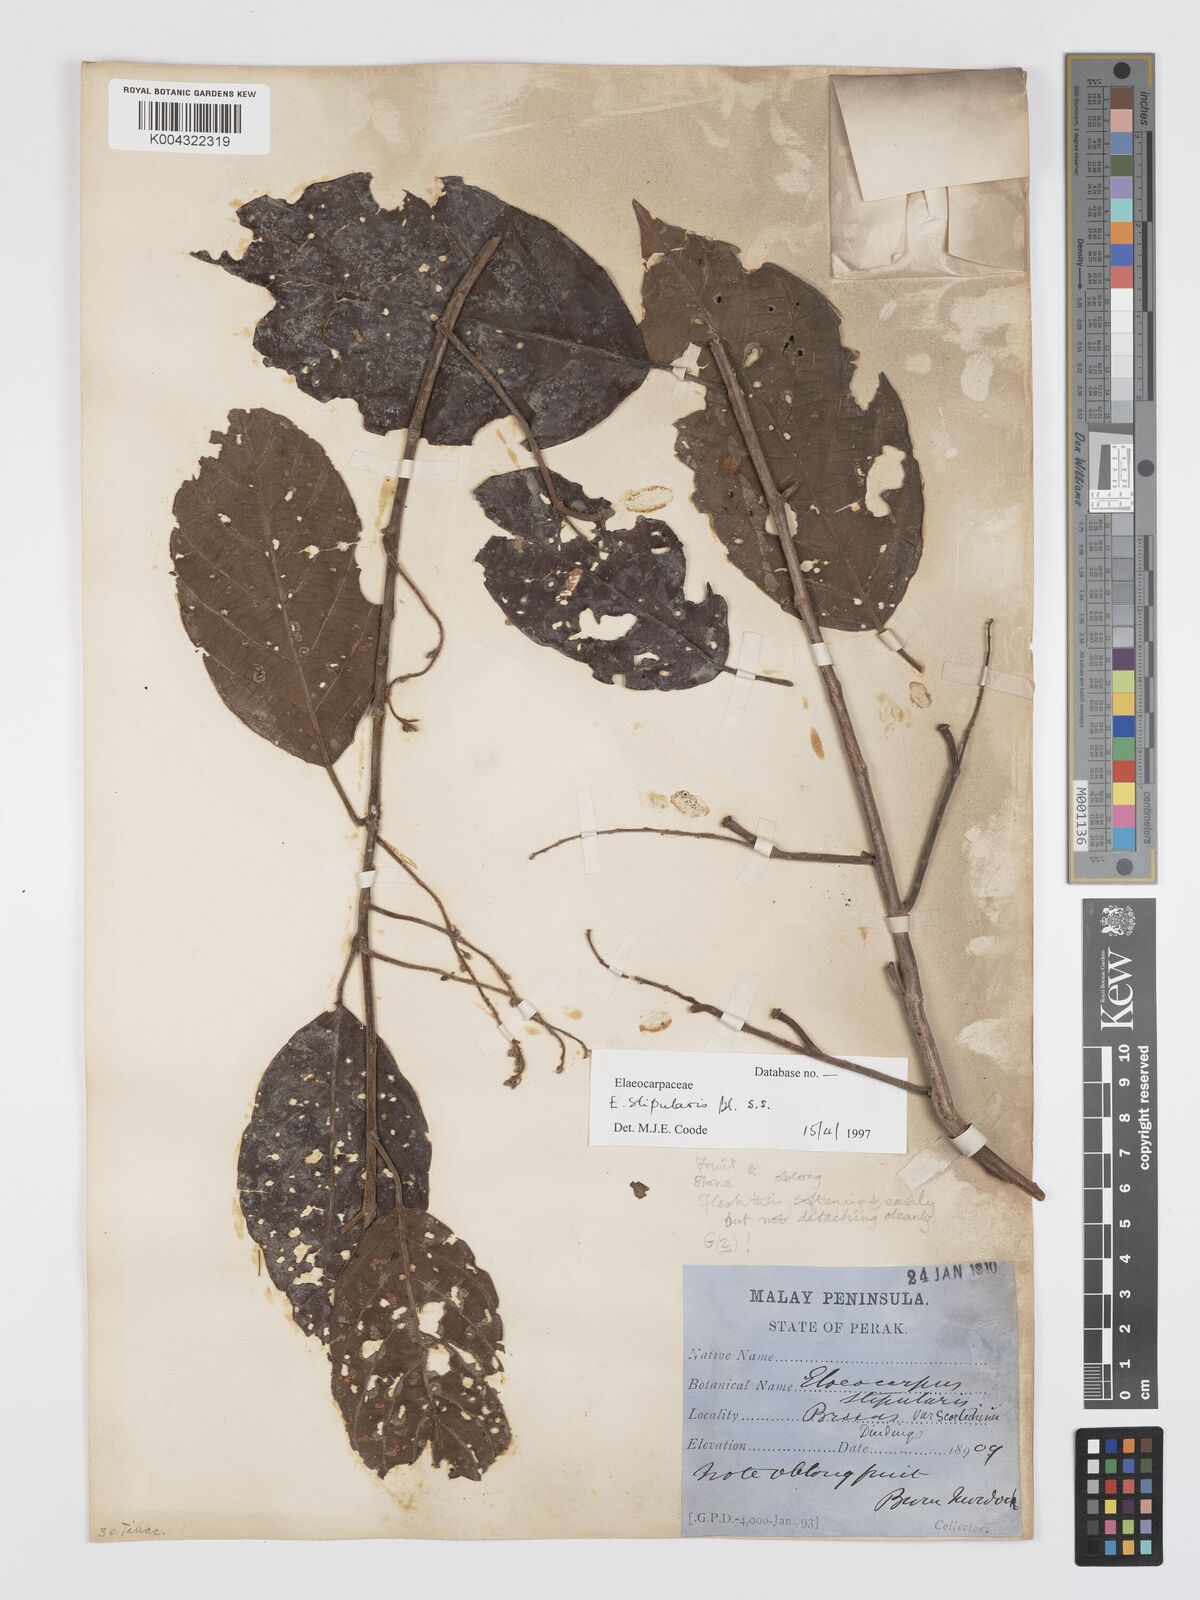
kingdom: Plantae
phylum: Tracheophyta
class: Magnoliopsida
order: Oxalidales
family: Elaeocarpaceae
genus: Elaeocarpus
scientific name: Elaeocarpus stipularis
